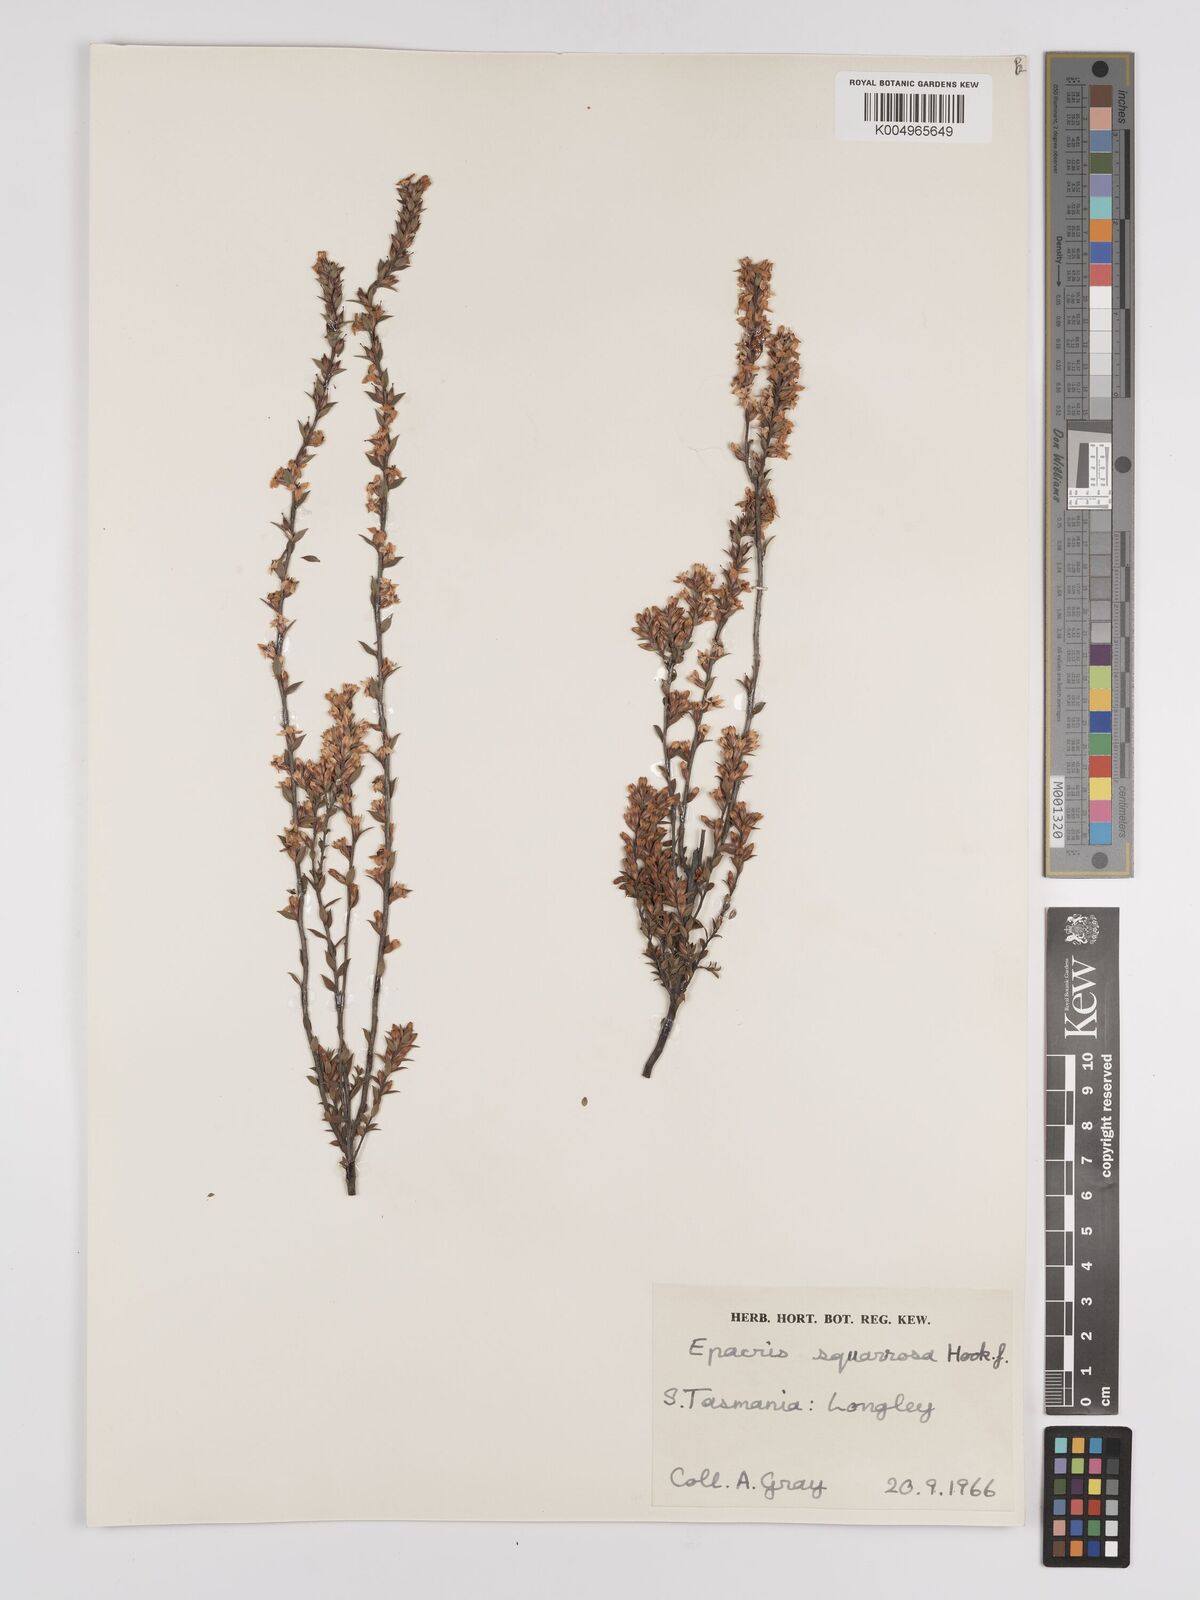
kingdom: Plantae
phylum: Tracheophyta
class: Magnoliopsida
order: Ericales
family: Ericaceae
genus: Epacris
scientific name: Epacris tasmanica
